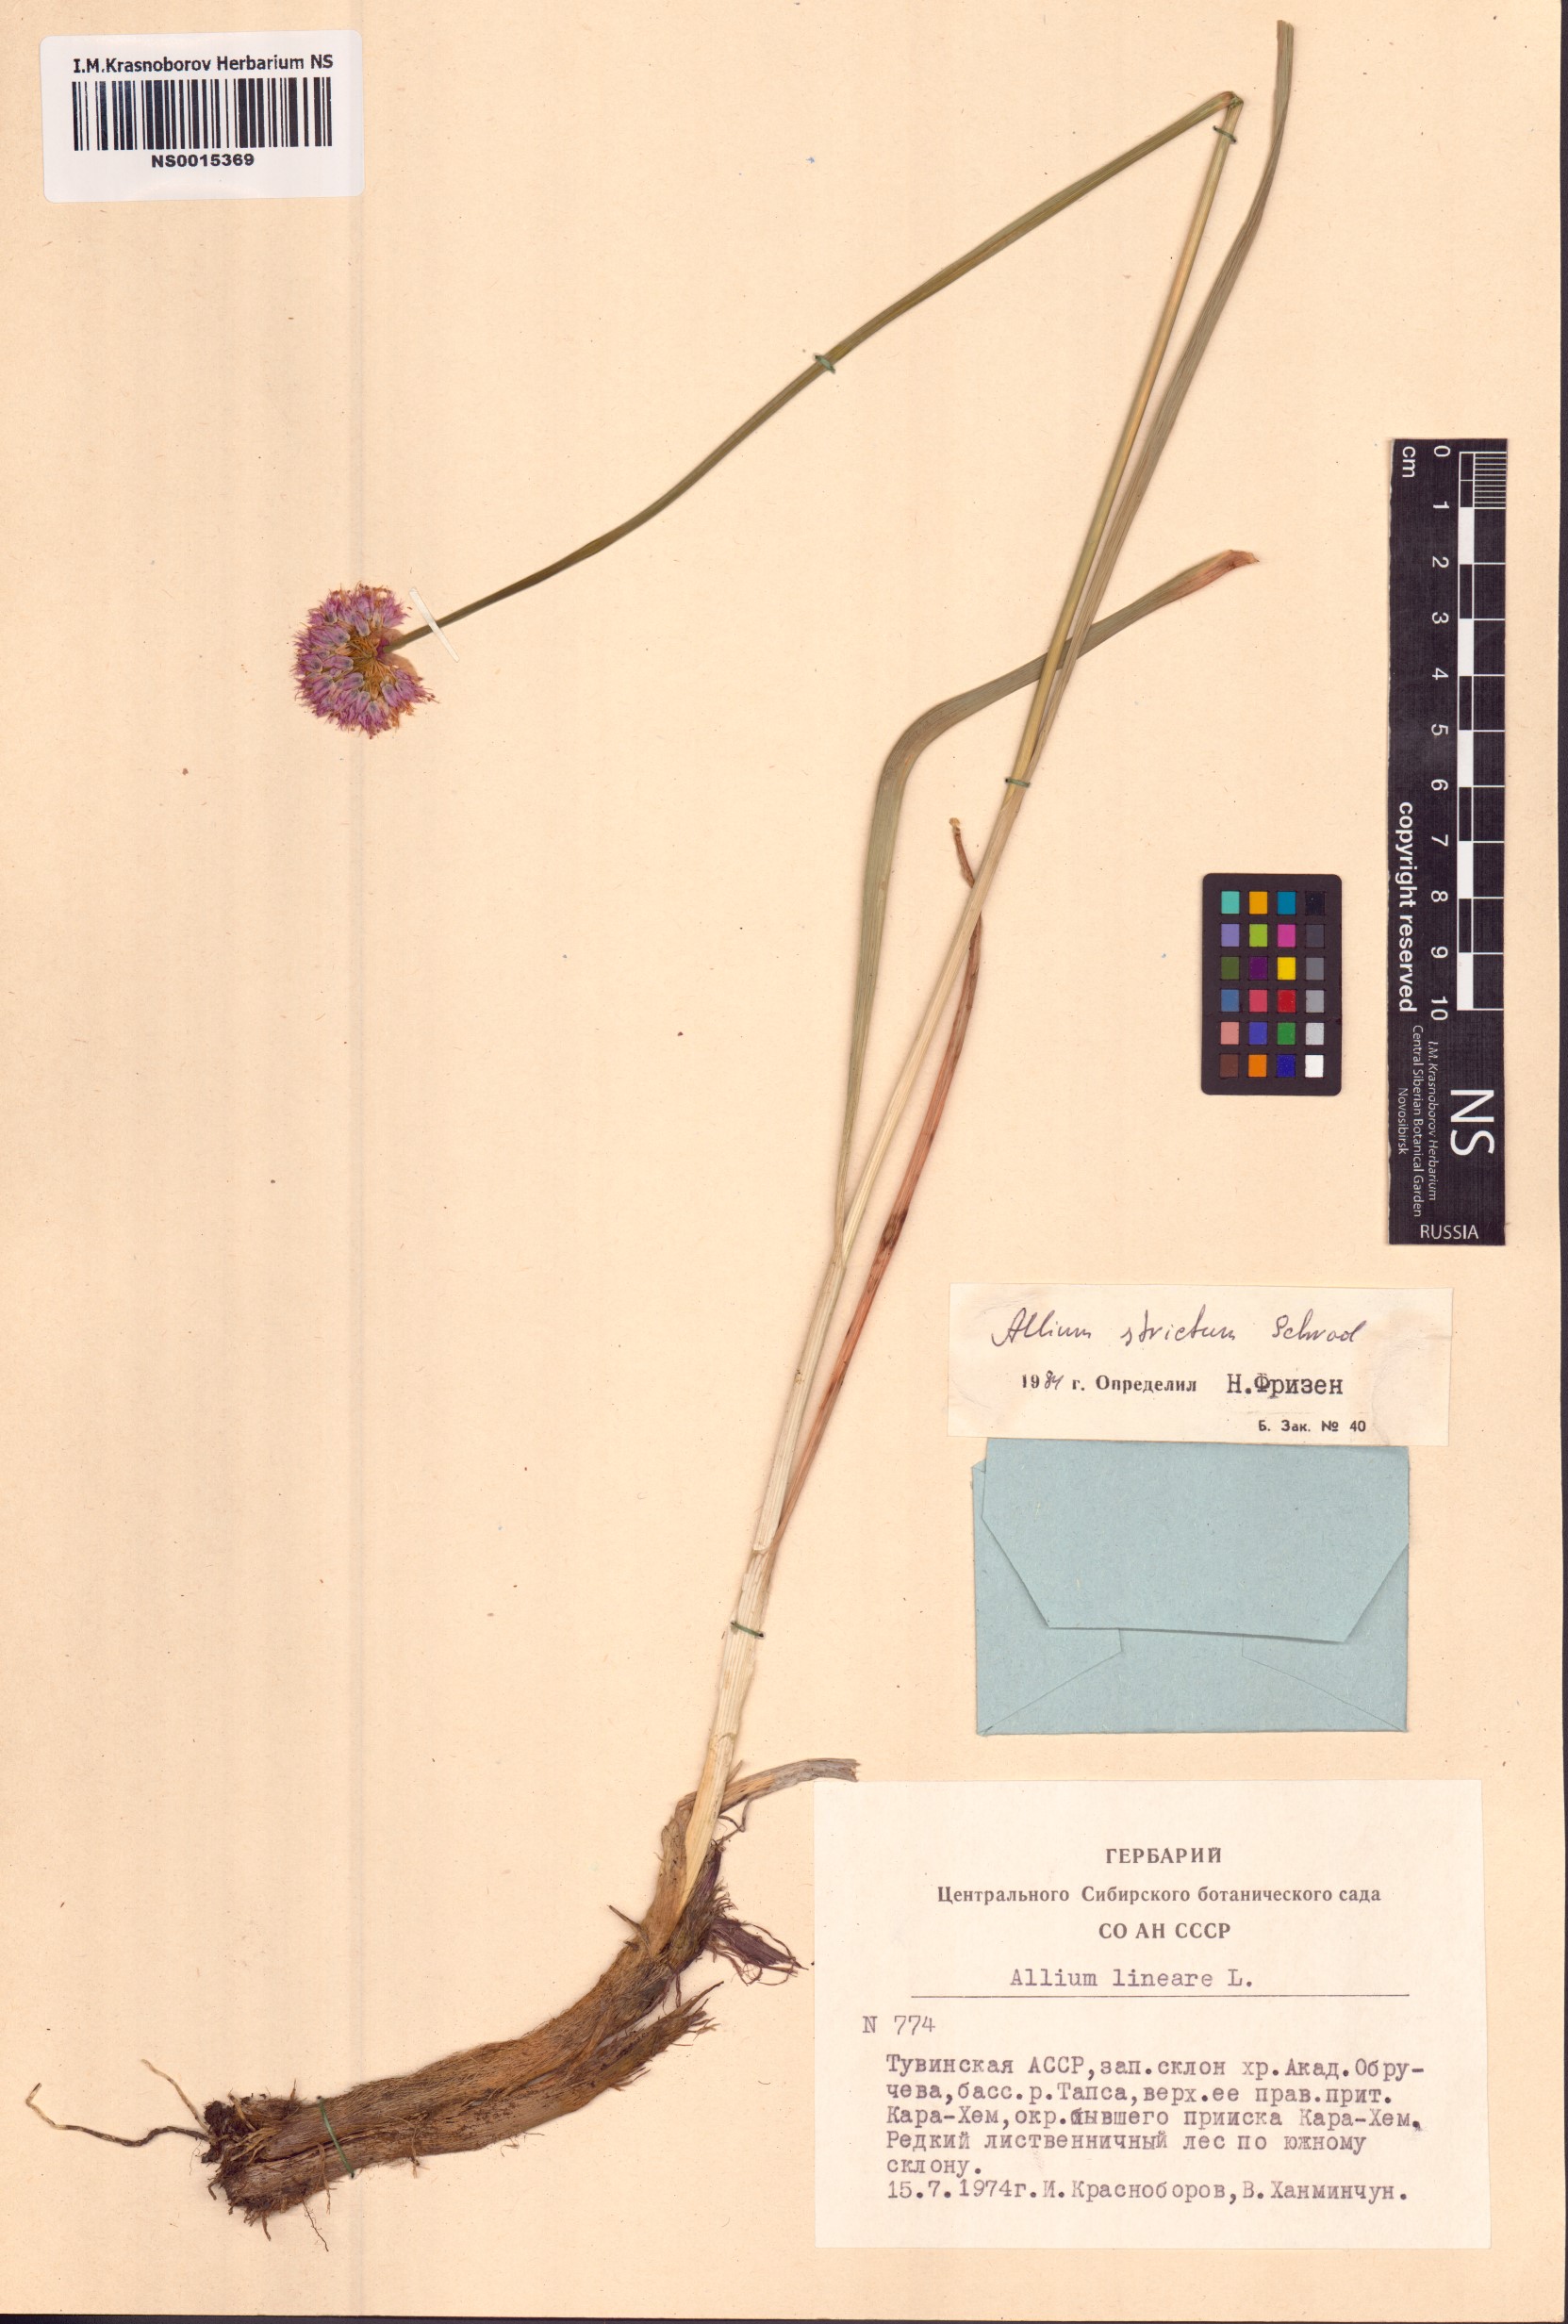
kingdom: Plantae
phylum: Tracheophyta
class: Liliopsida
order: Asparagales
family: Amaryllidaceae
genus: Allium
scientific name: Allium strictum
